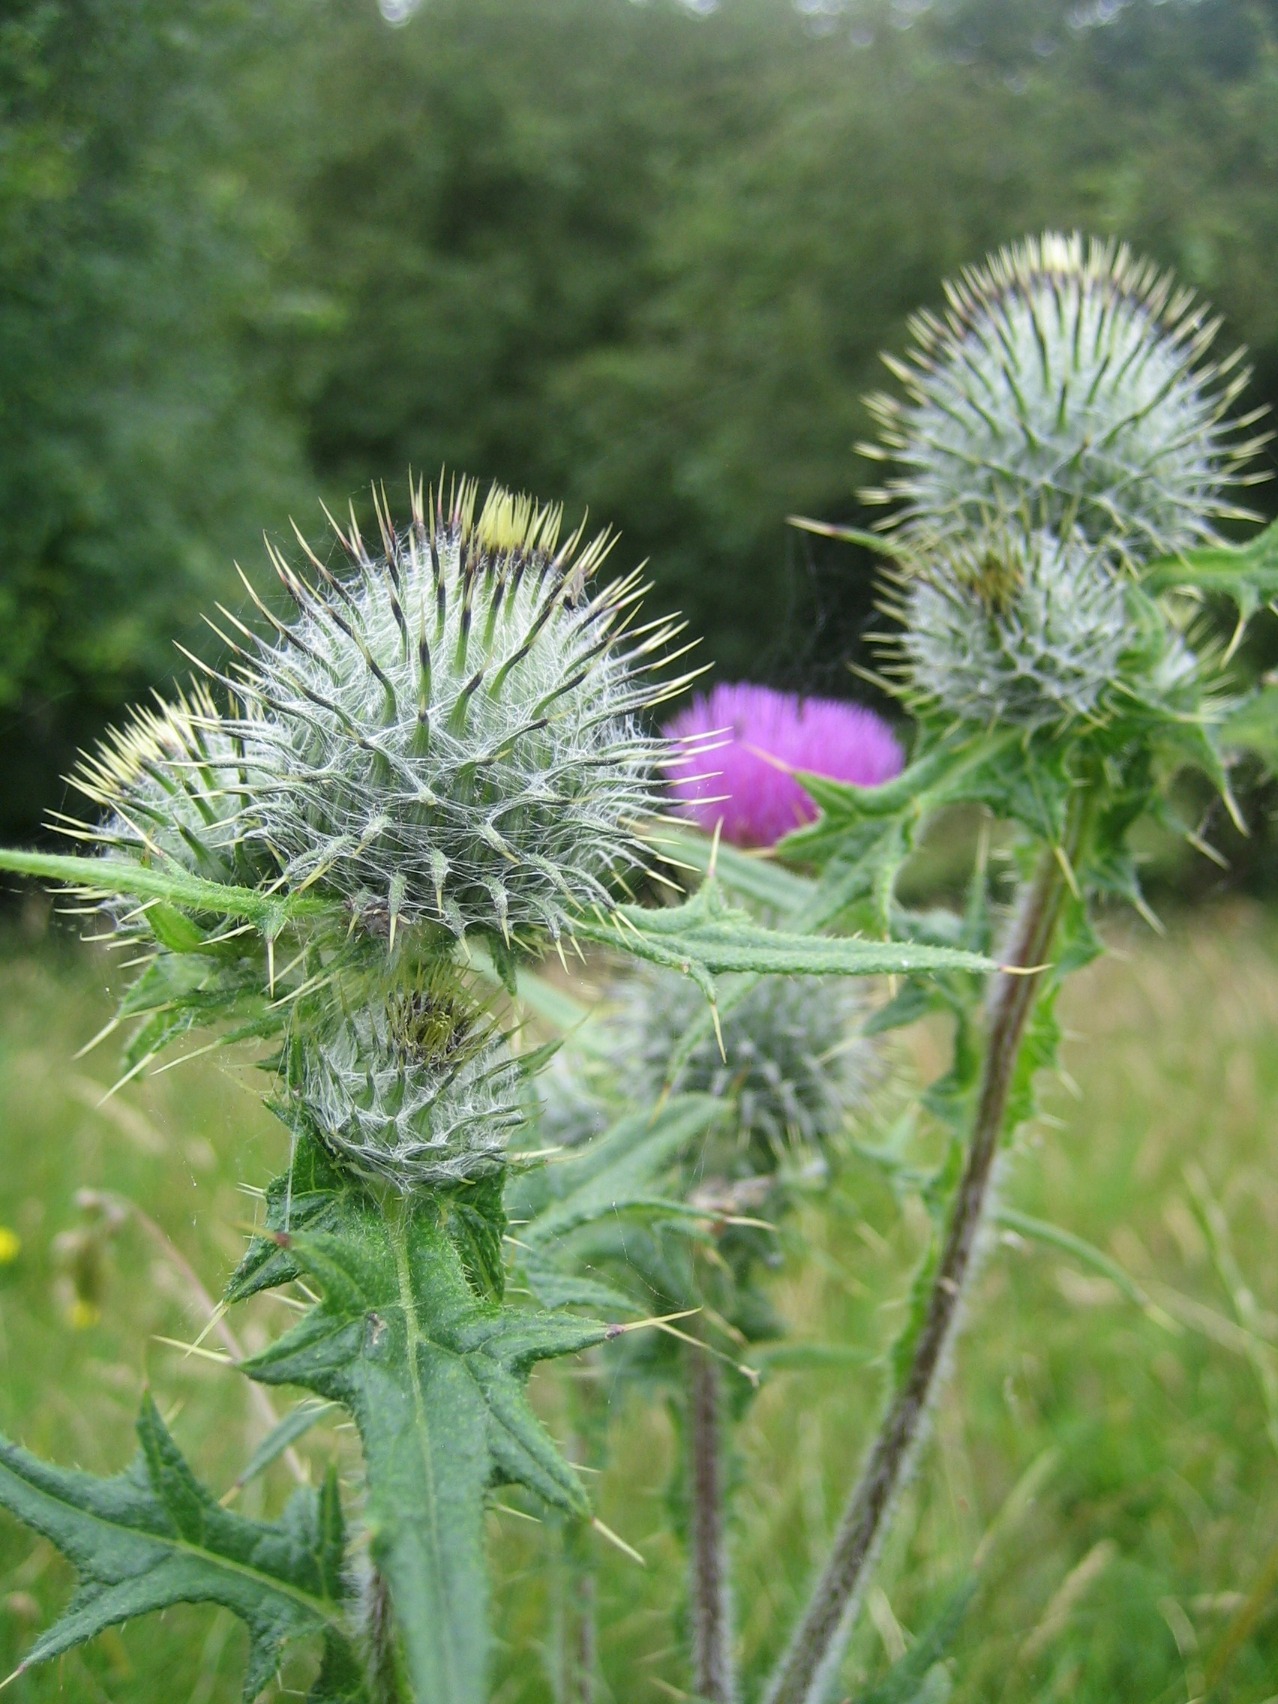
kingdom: Plantae
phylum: Tracheophyta
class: Magnoliopsida
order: Asterales
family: Asteraceae
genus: Cirsium
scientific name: Cirsium vulgare
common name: Horse-tidsel
